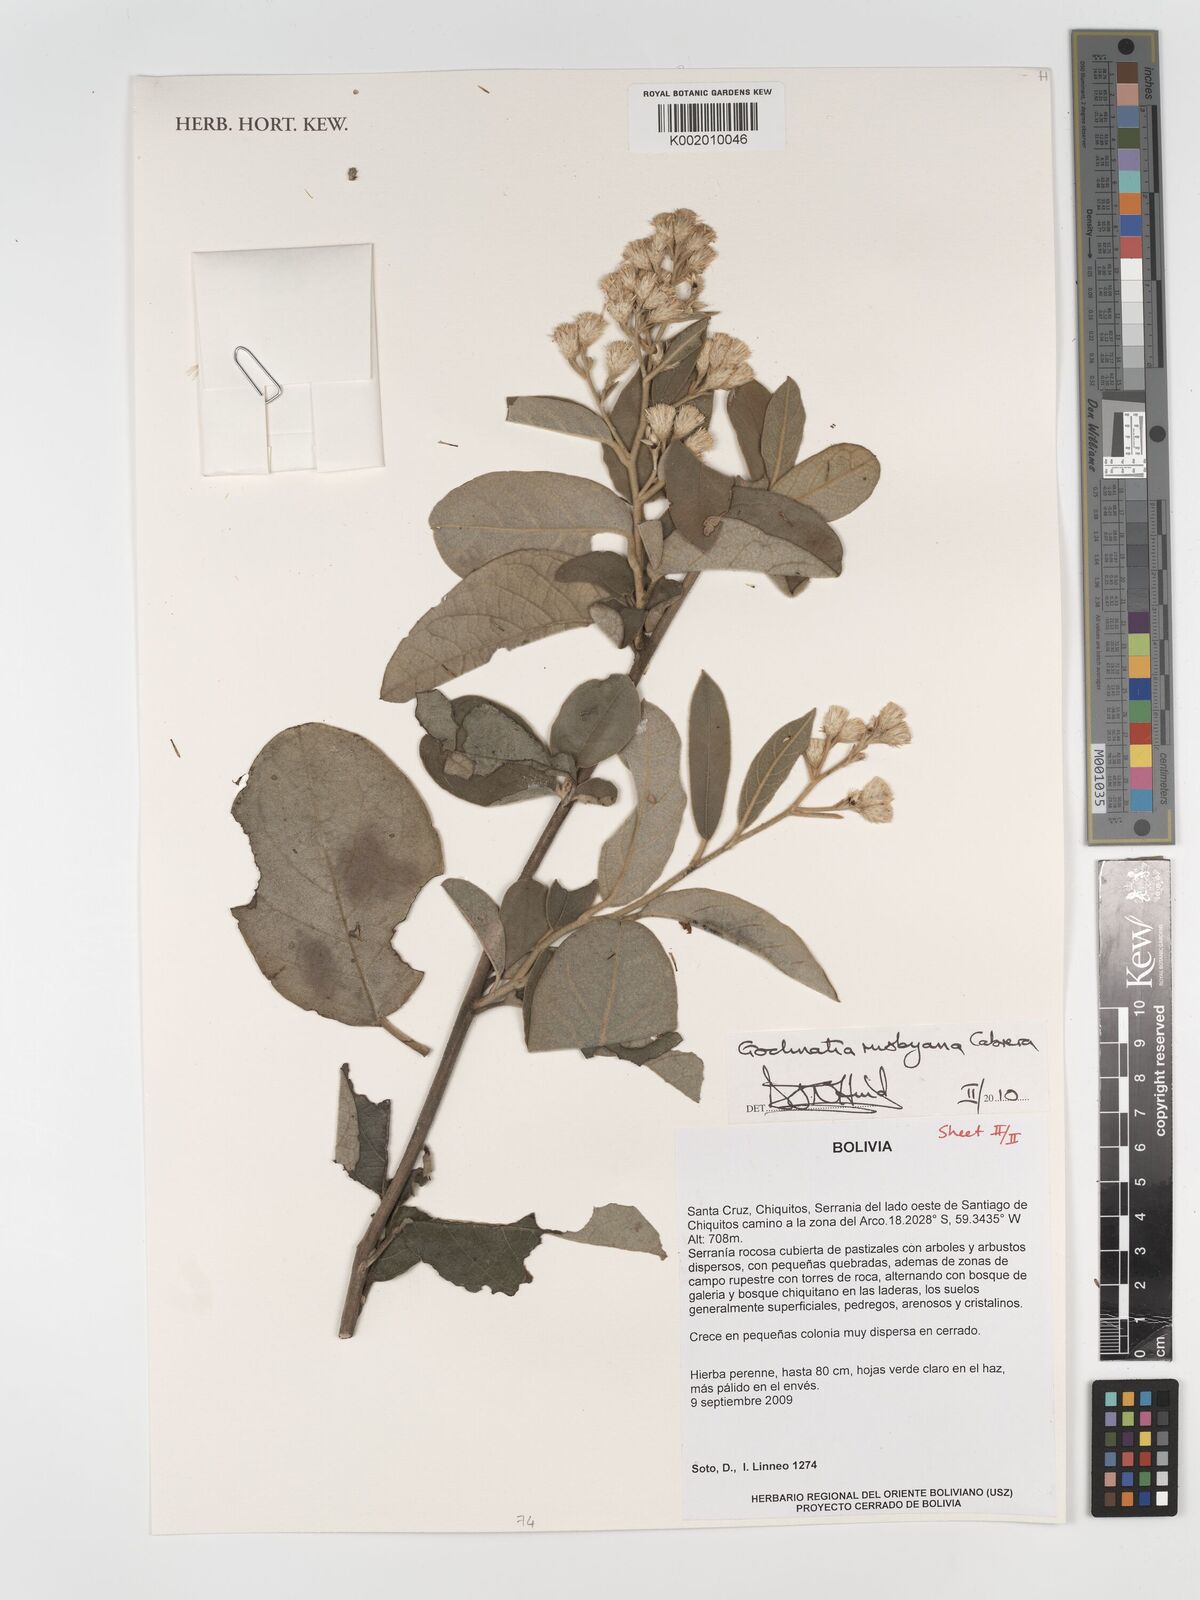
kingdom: Plantae
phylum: Tracheophyta
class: Magnoliopsida
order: Asterales
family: Asteraceae
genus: Moquiniastrum
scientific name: Moquiniastrum bolivianum
